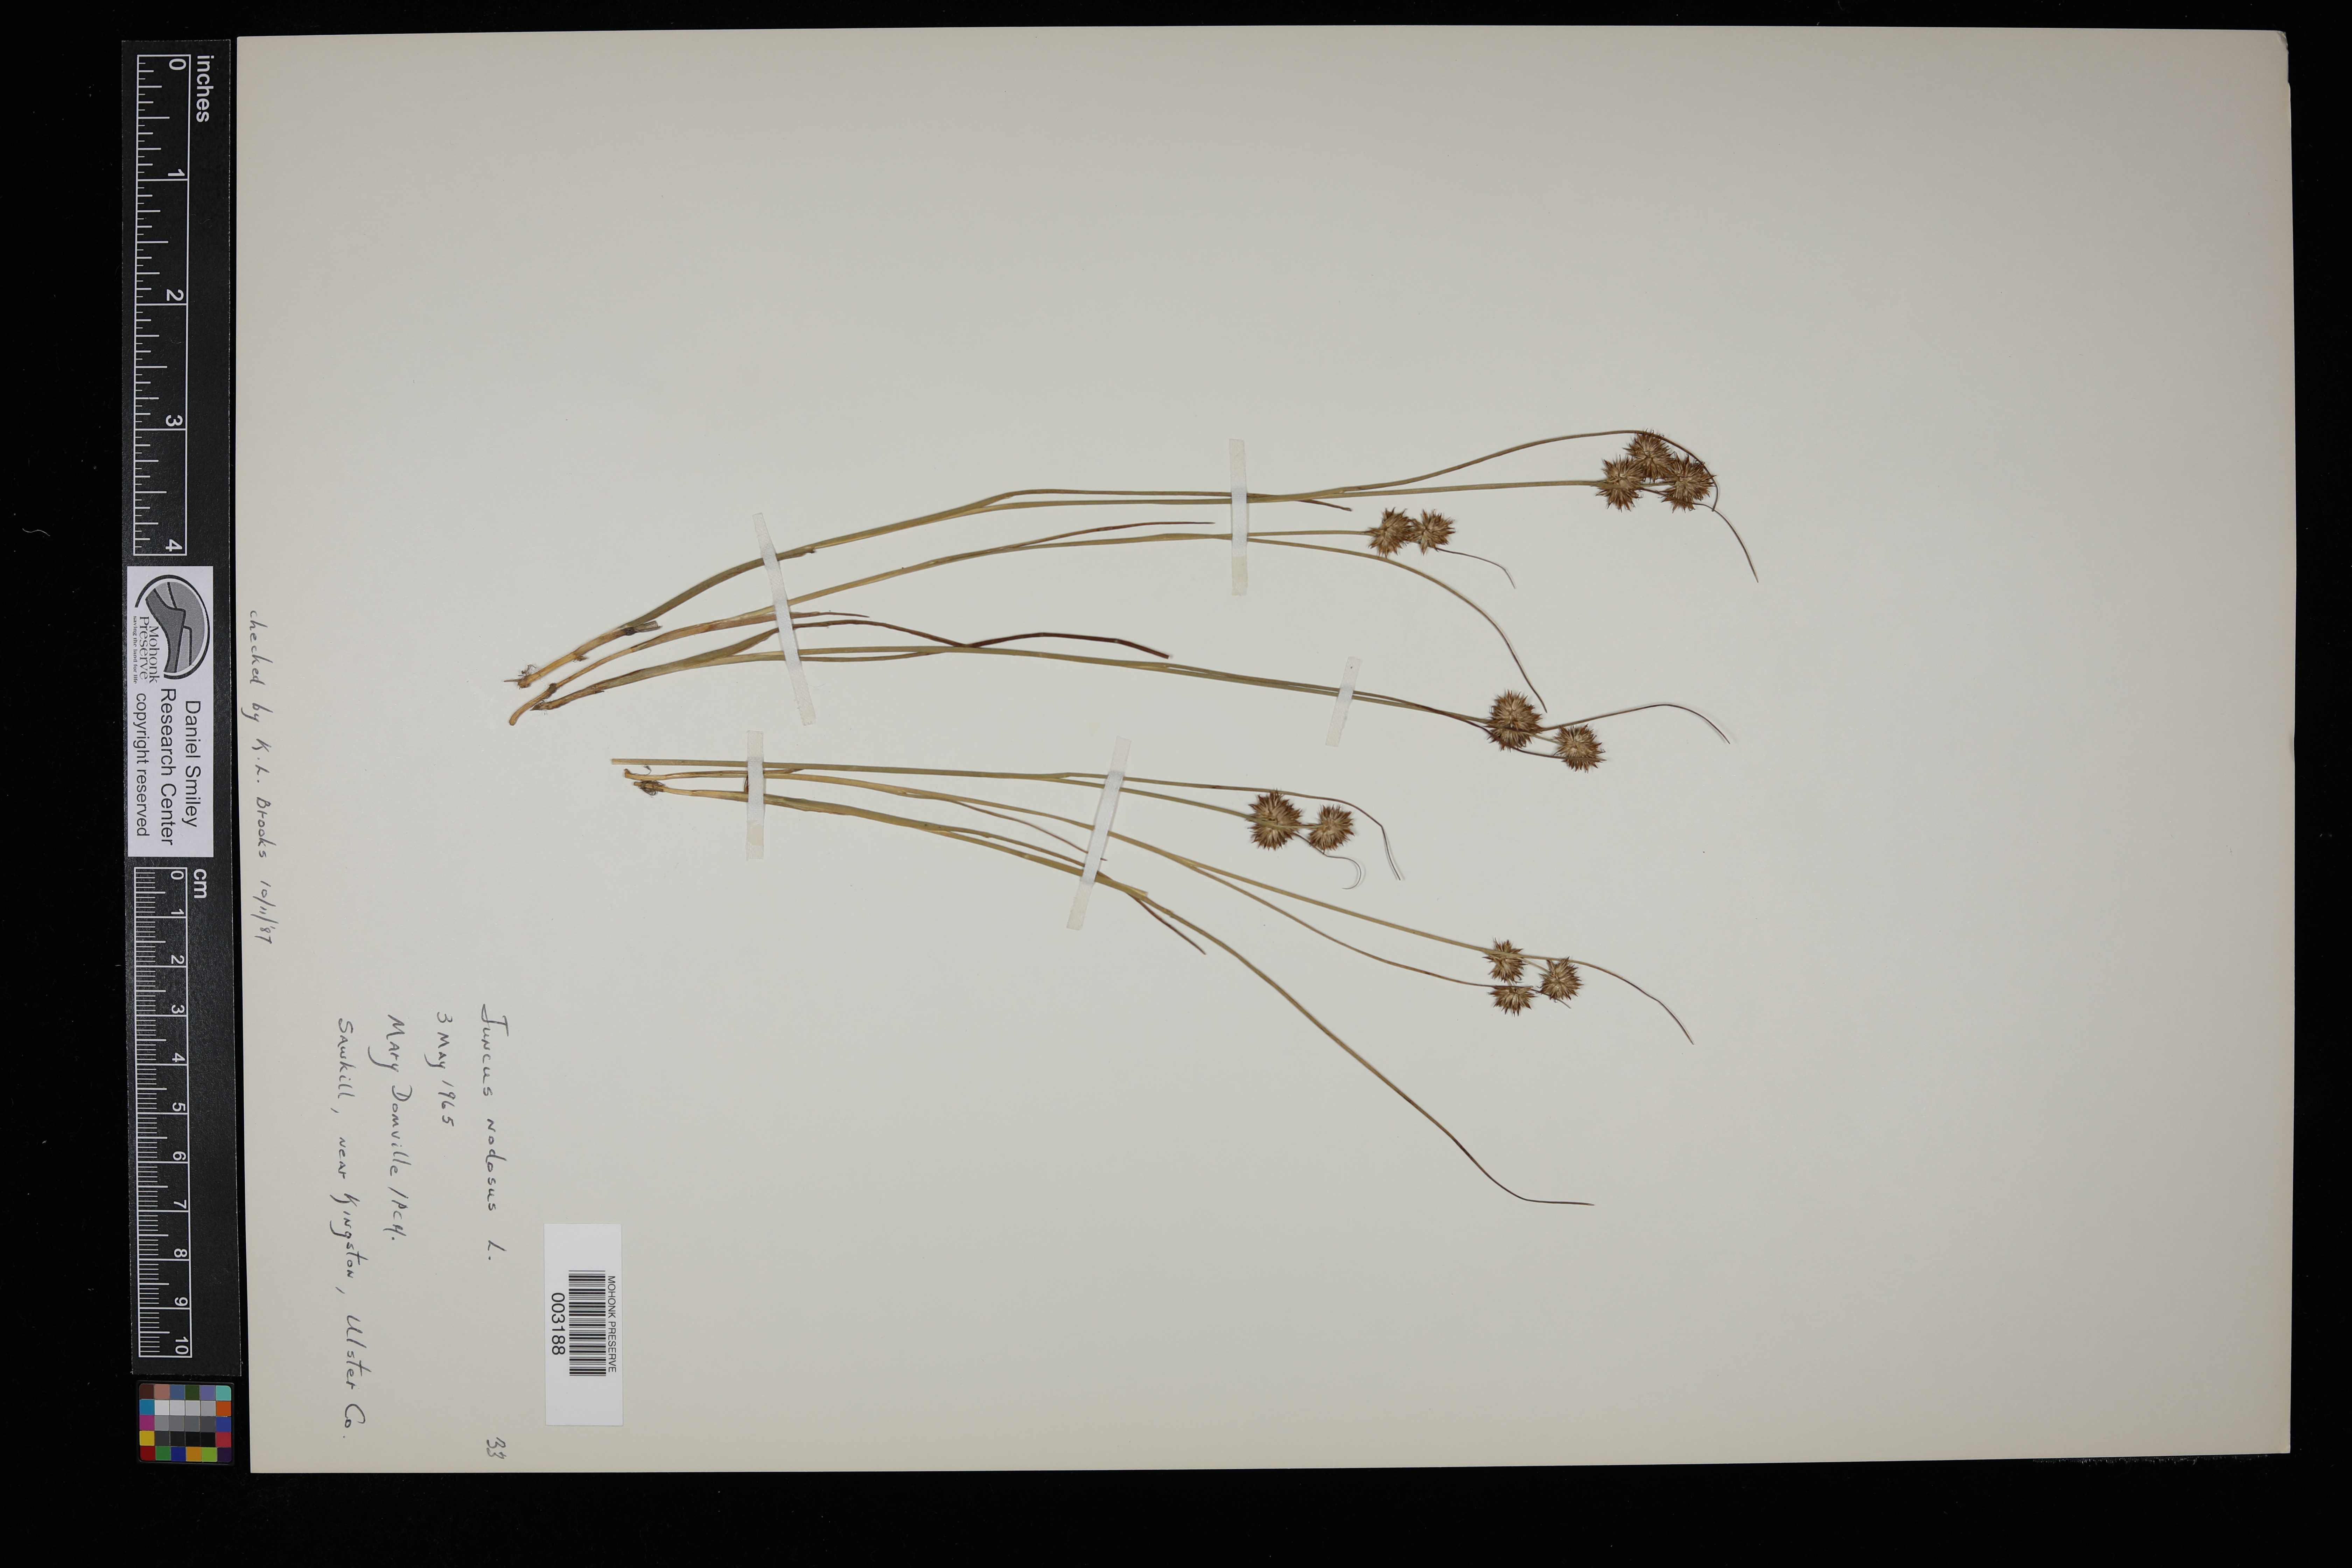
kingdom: Plantae
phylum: Tracheophyta
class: Liliopsida
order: Poales
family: Juncaceae
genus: Juncus
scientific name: Juncus nodosus
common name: Knotted rush
